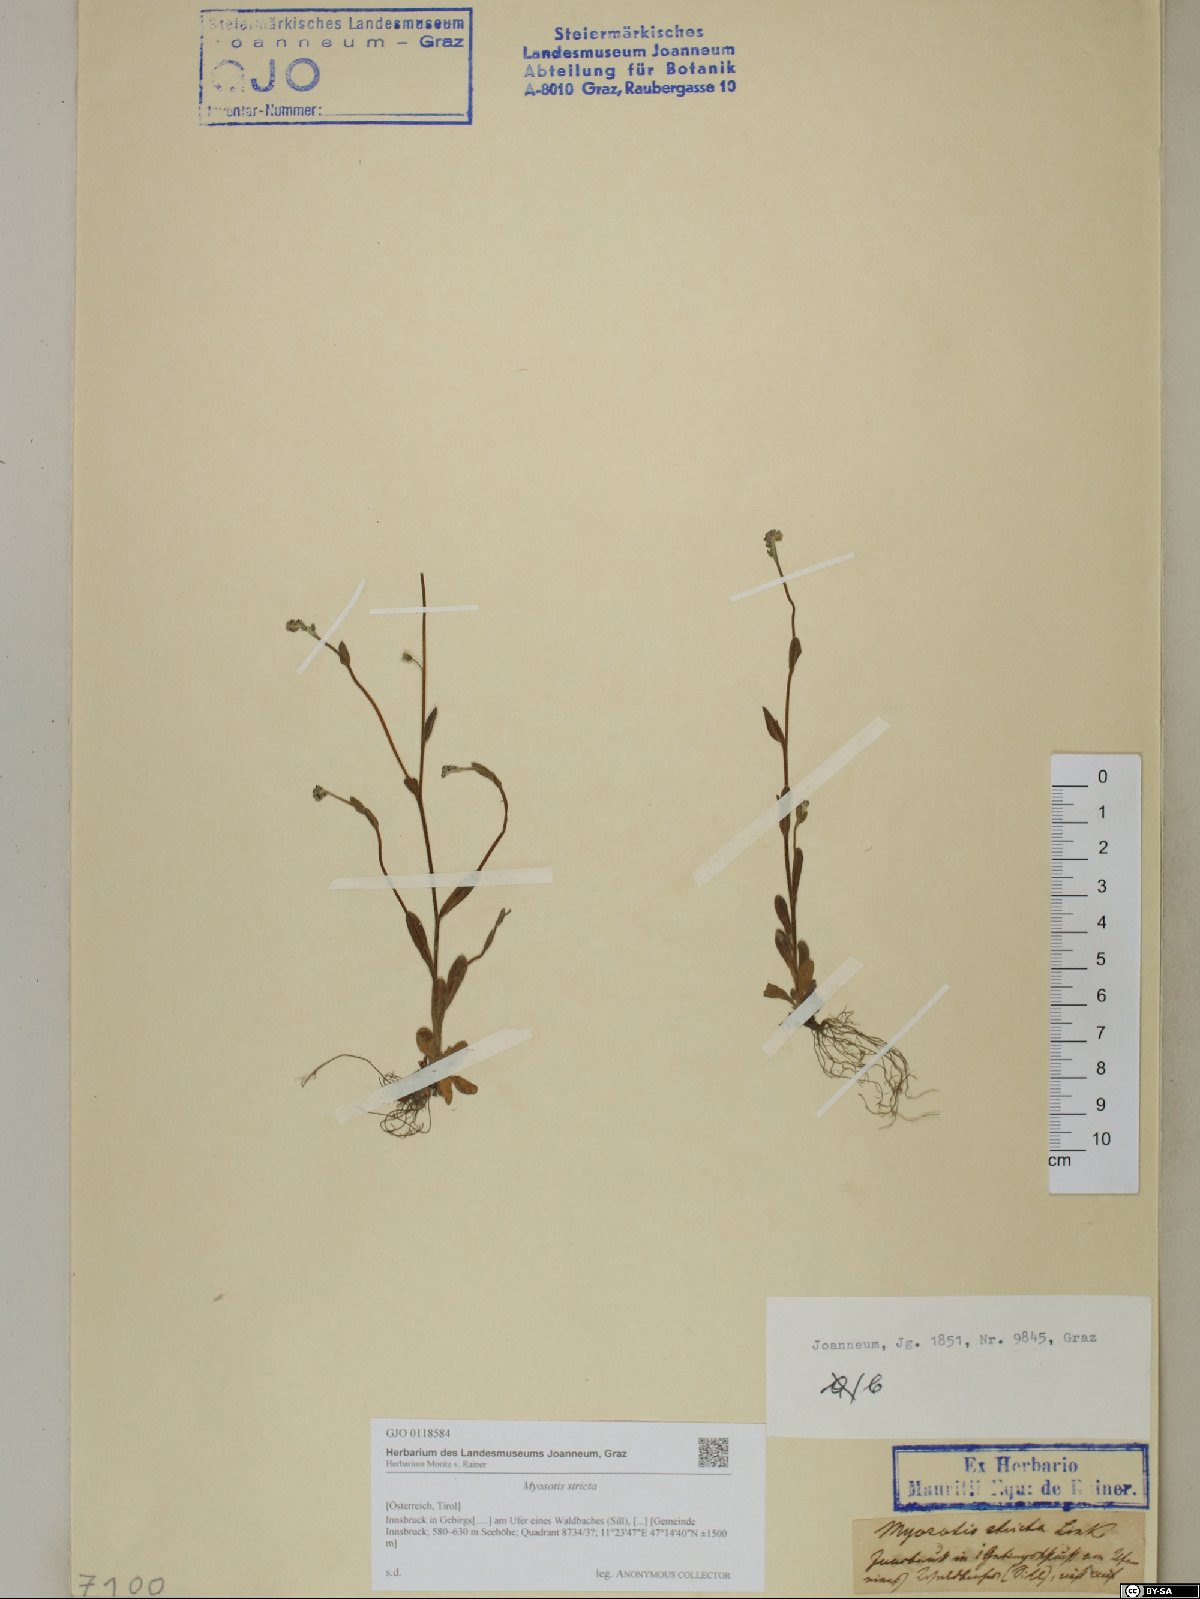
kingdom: Plantae
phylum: Tracheophyta
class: Magnoliopsida
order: Boraginales
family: Boraginaceae
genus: Myosotis
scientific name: Myosotis stricta
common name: Strict forget-me-not
